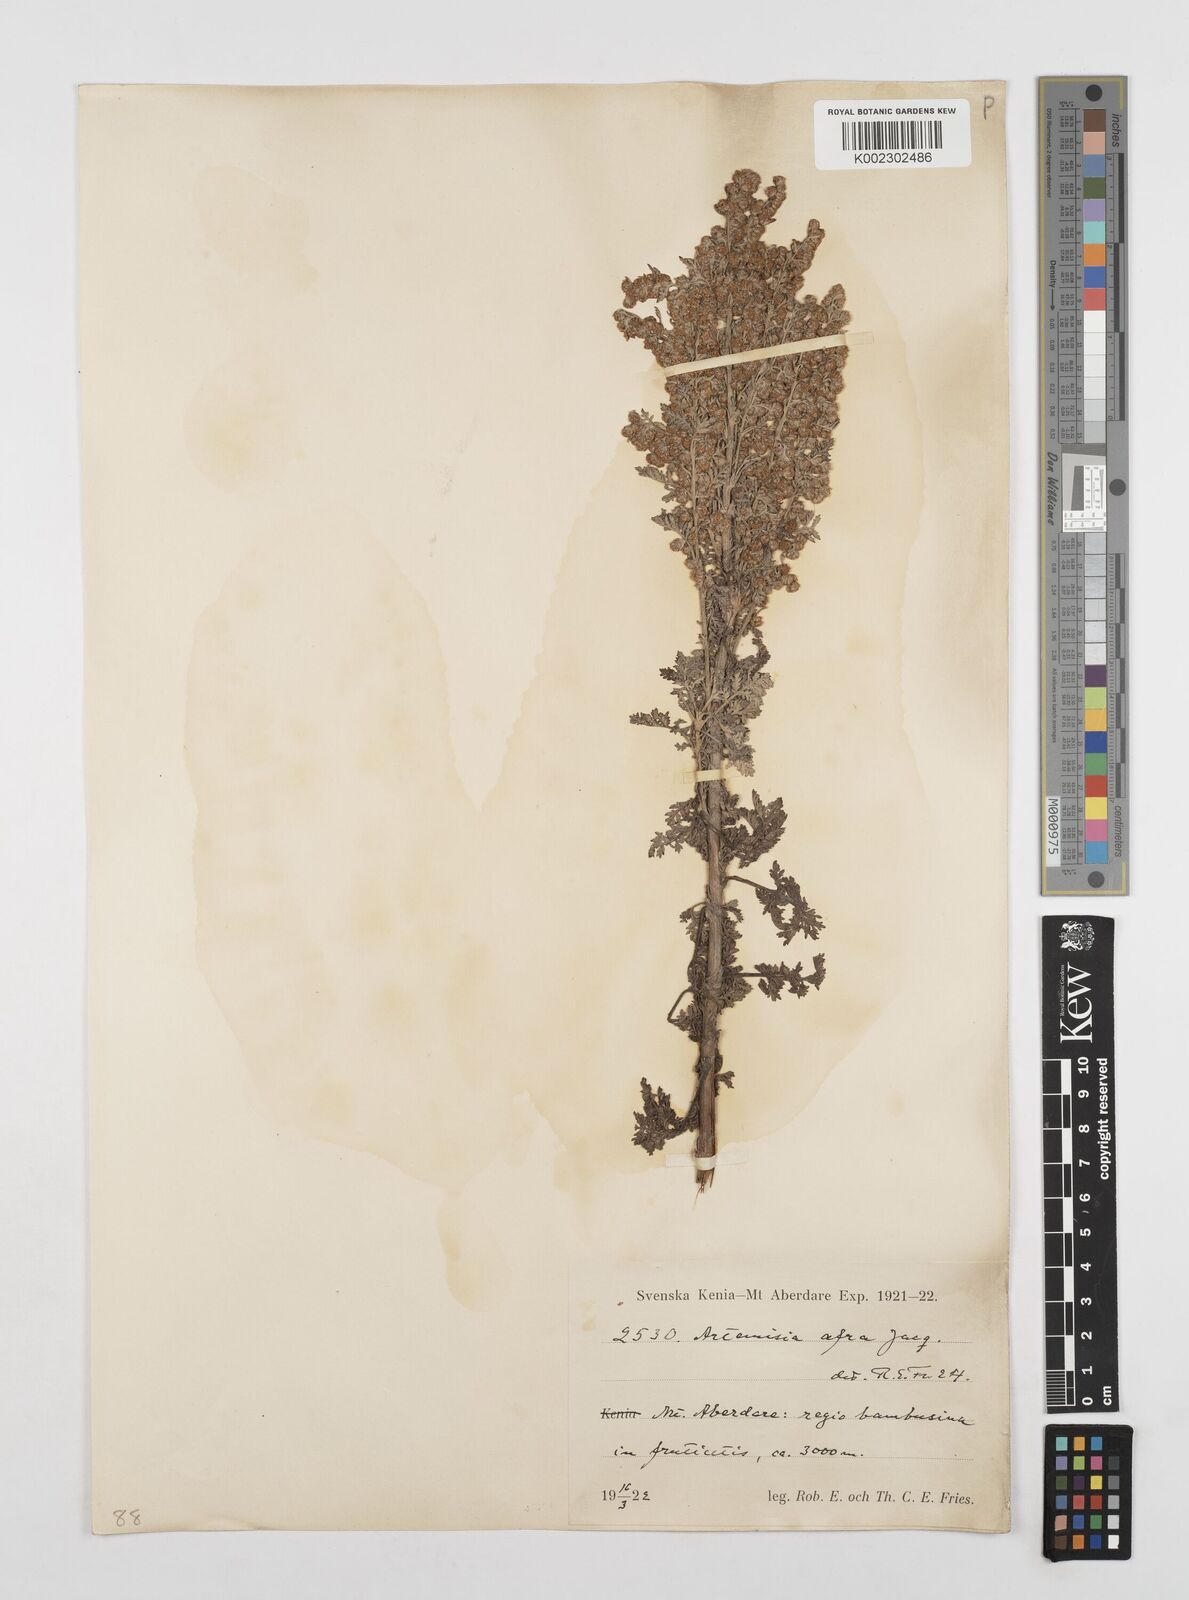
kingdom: Plantae
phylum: Tracheophyta
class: Magnoliopsida
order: Asterales
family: Asteraceae
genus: Artemisia
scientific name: Artemisia afra
